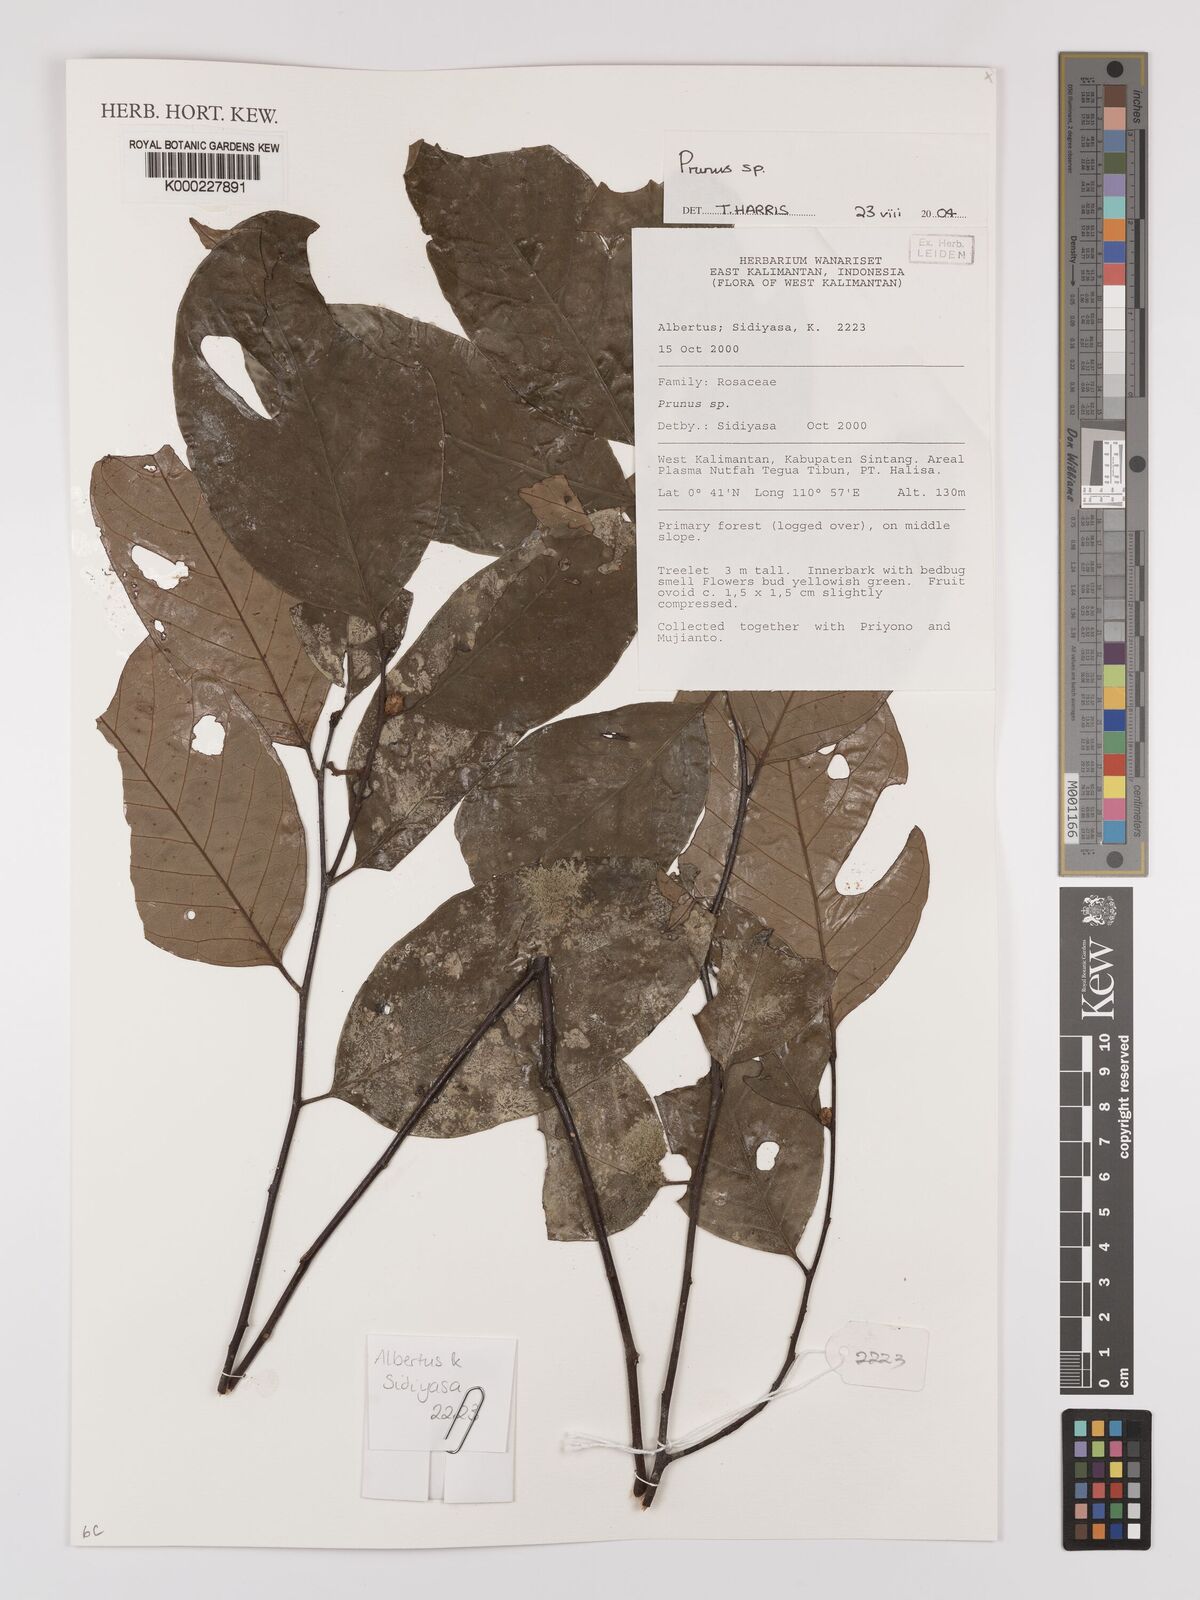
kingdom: Plantae
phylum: Tracheophyta
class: Magnoliopsida
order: Rosales
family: Rosaceae
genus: Prunus
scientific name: Prunus
